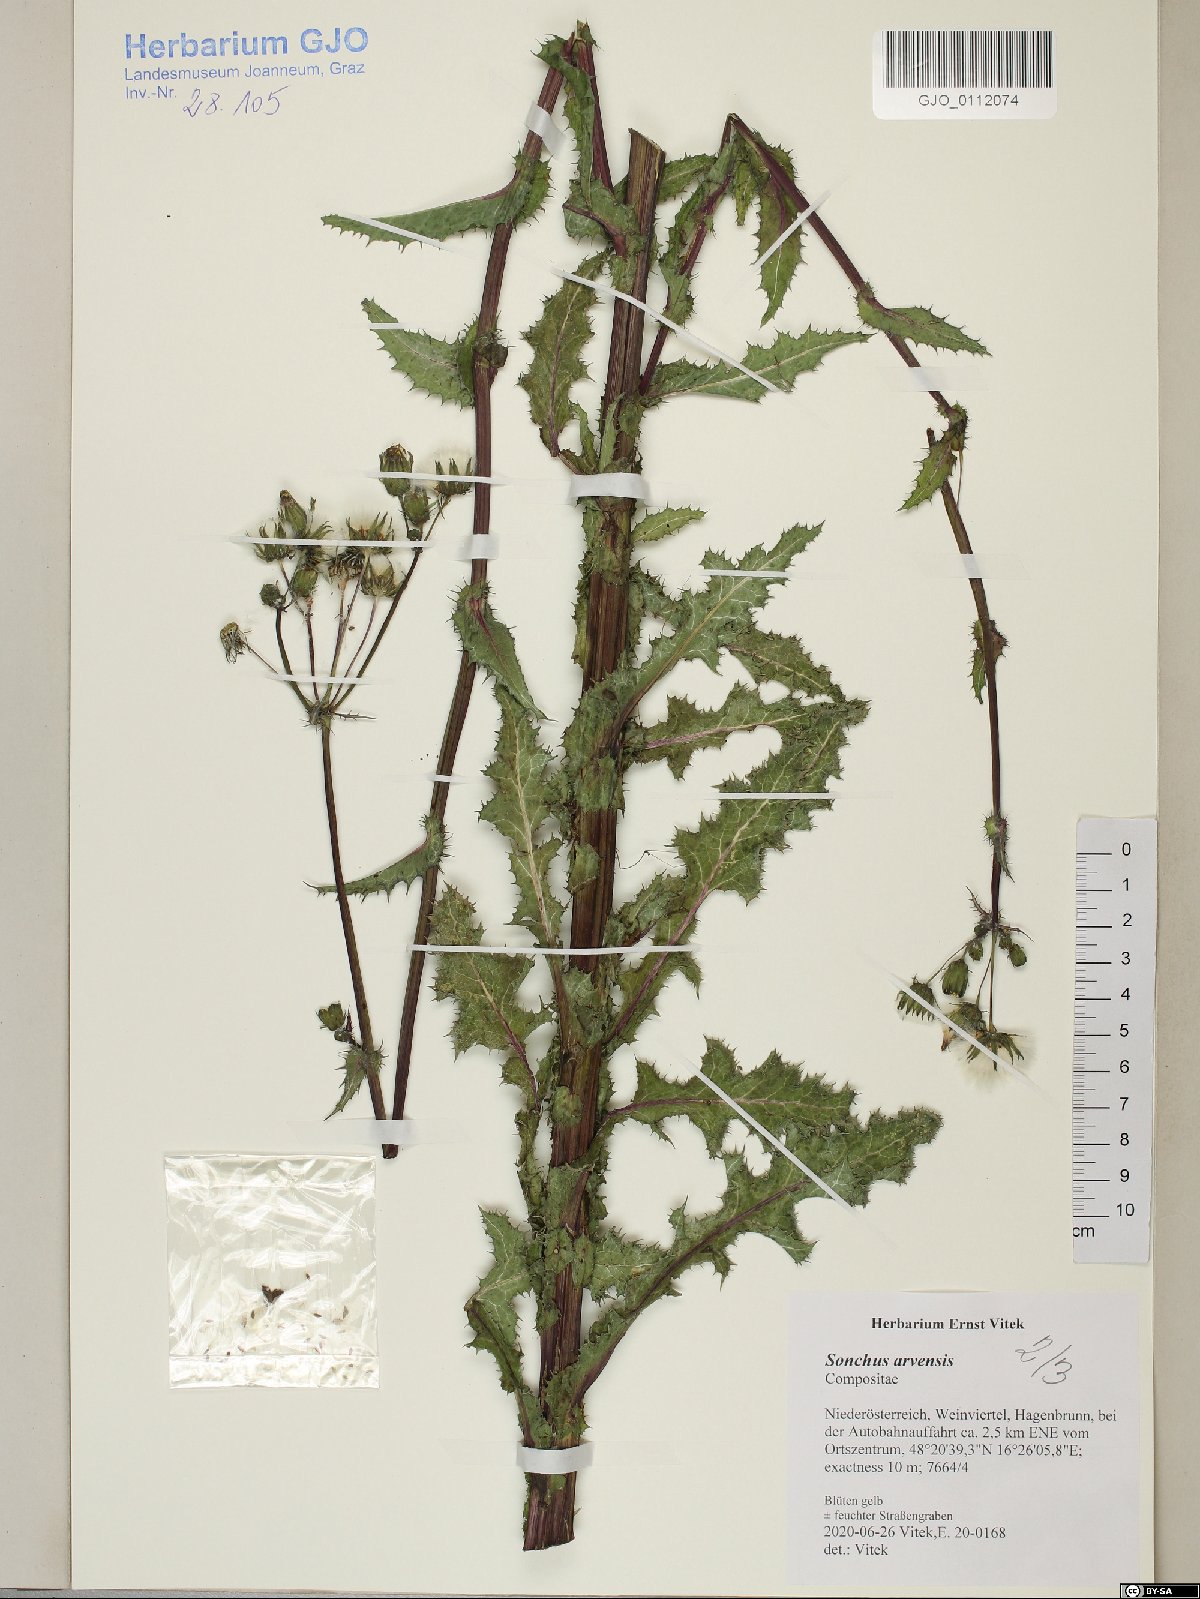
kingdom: Plantae
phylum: Tracheophyta
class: Magnoliopsida
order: Asterales
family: Asteraceae
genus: Sonchus
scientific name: Sonchus arvensis
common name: Perennial sow-thistle
